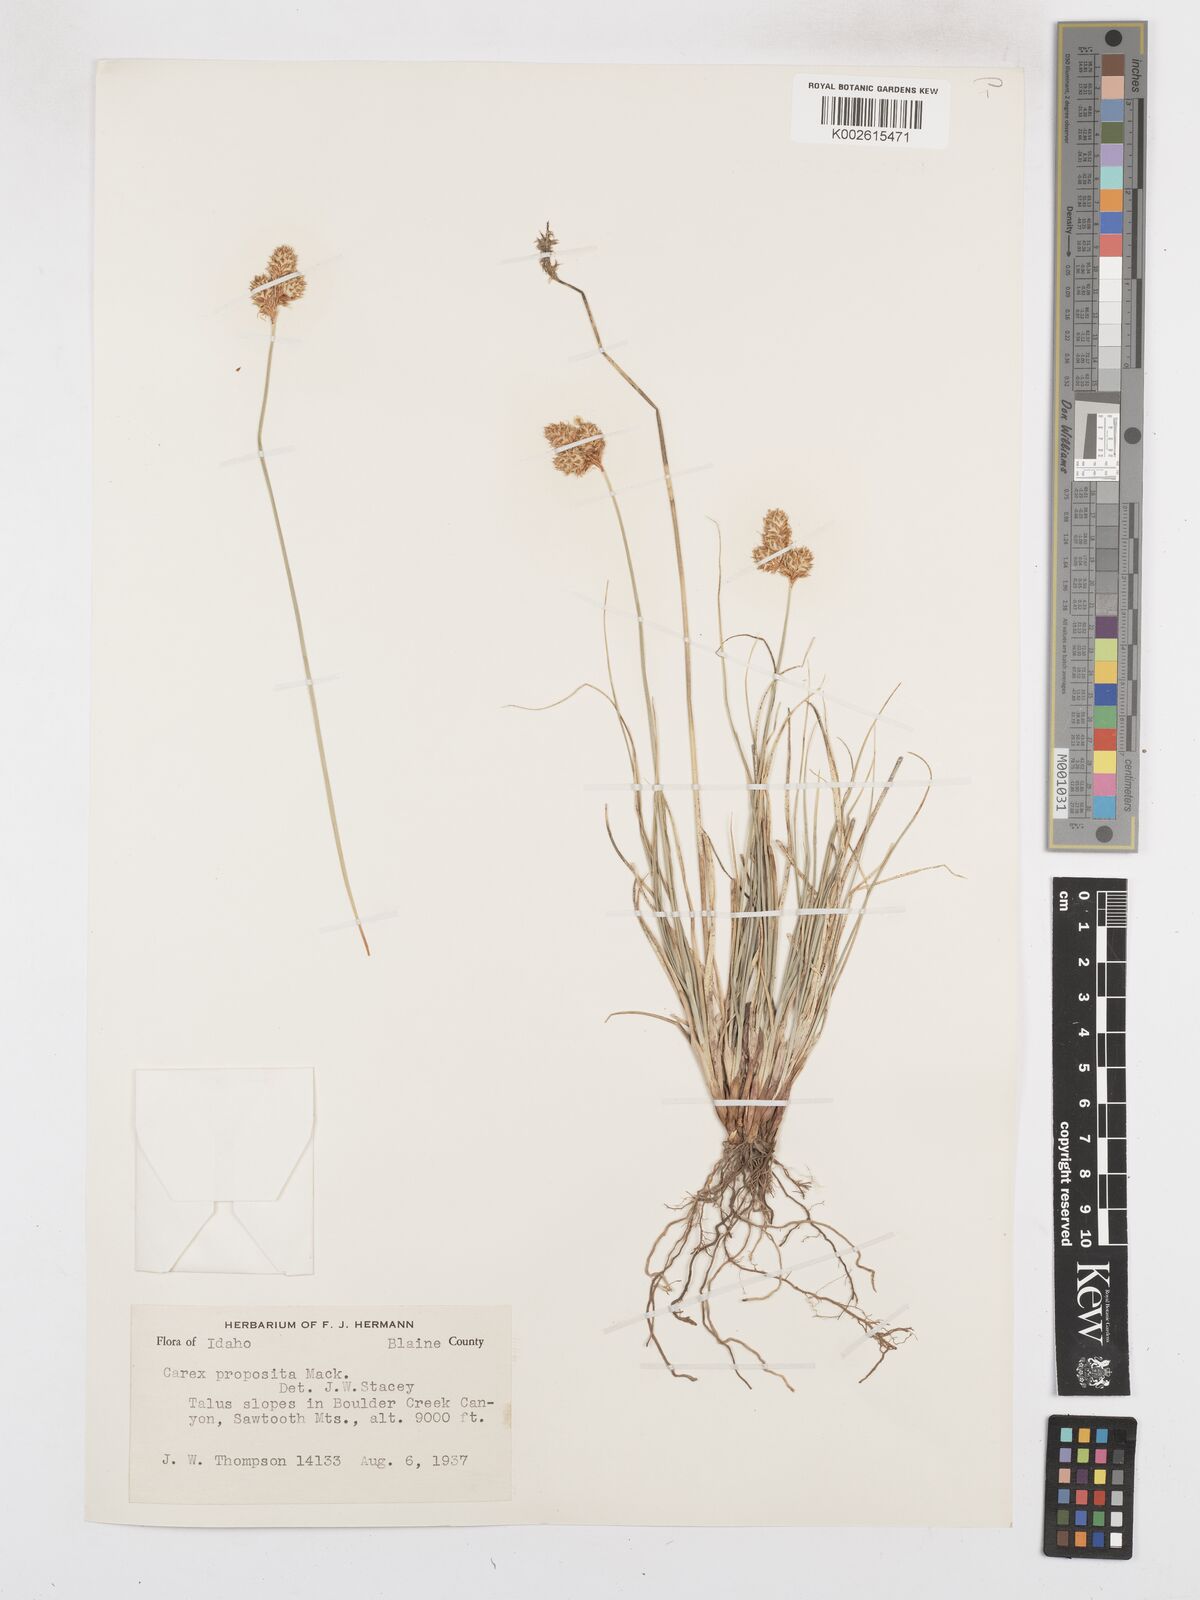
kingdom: Plantae
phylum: Tracheophyta
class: Liliopsida
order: Poales
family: Cyperaceae
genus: Carex
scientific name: Carex proposita
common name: Great smoky mountain sedge
